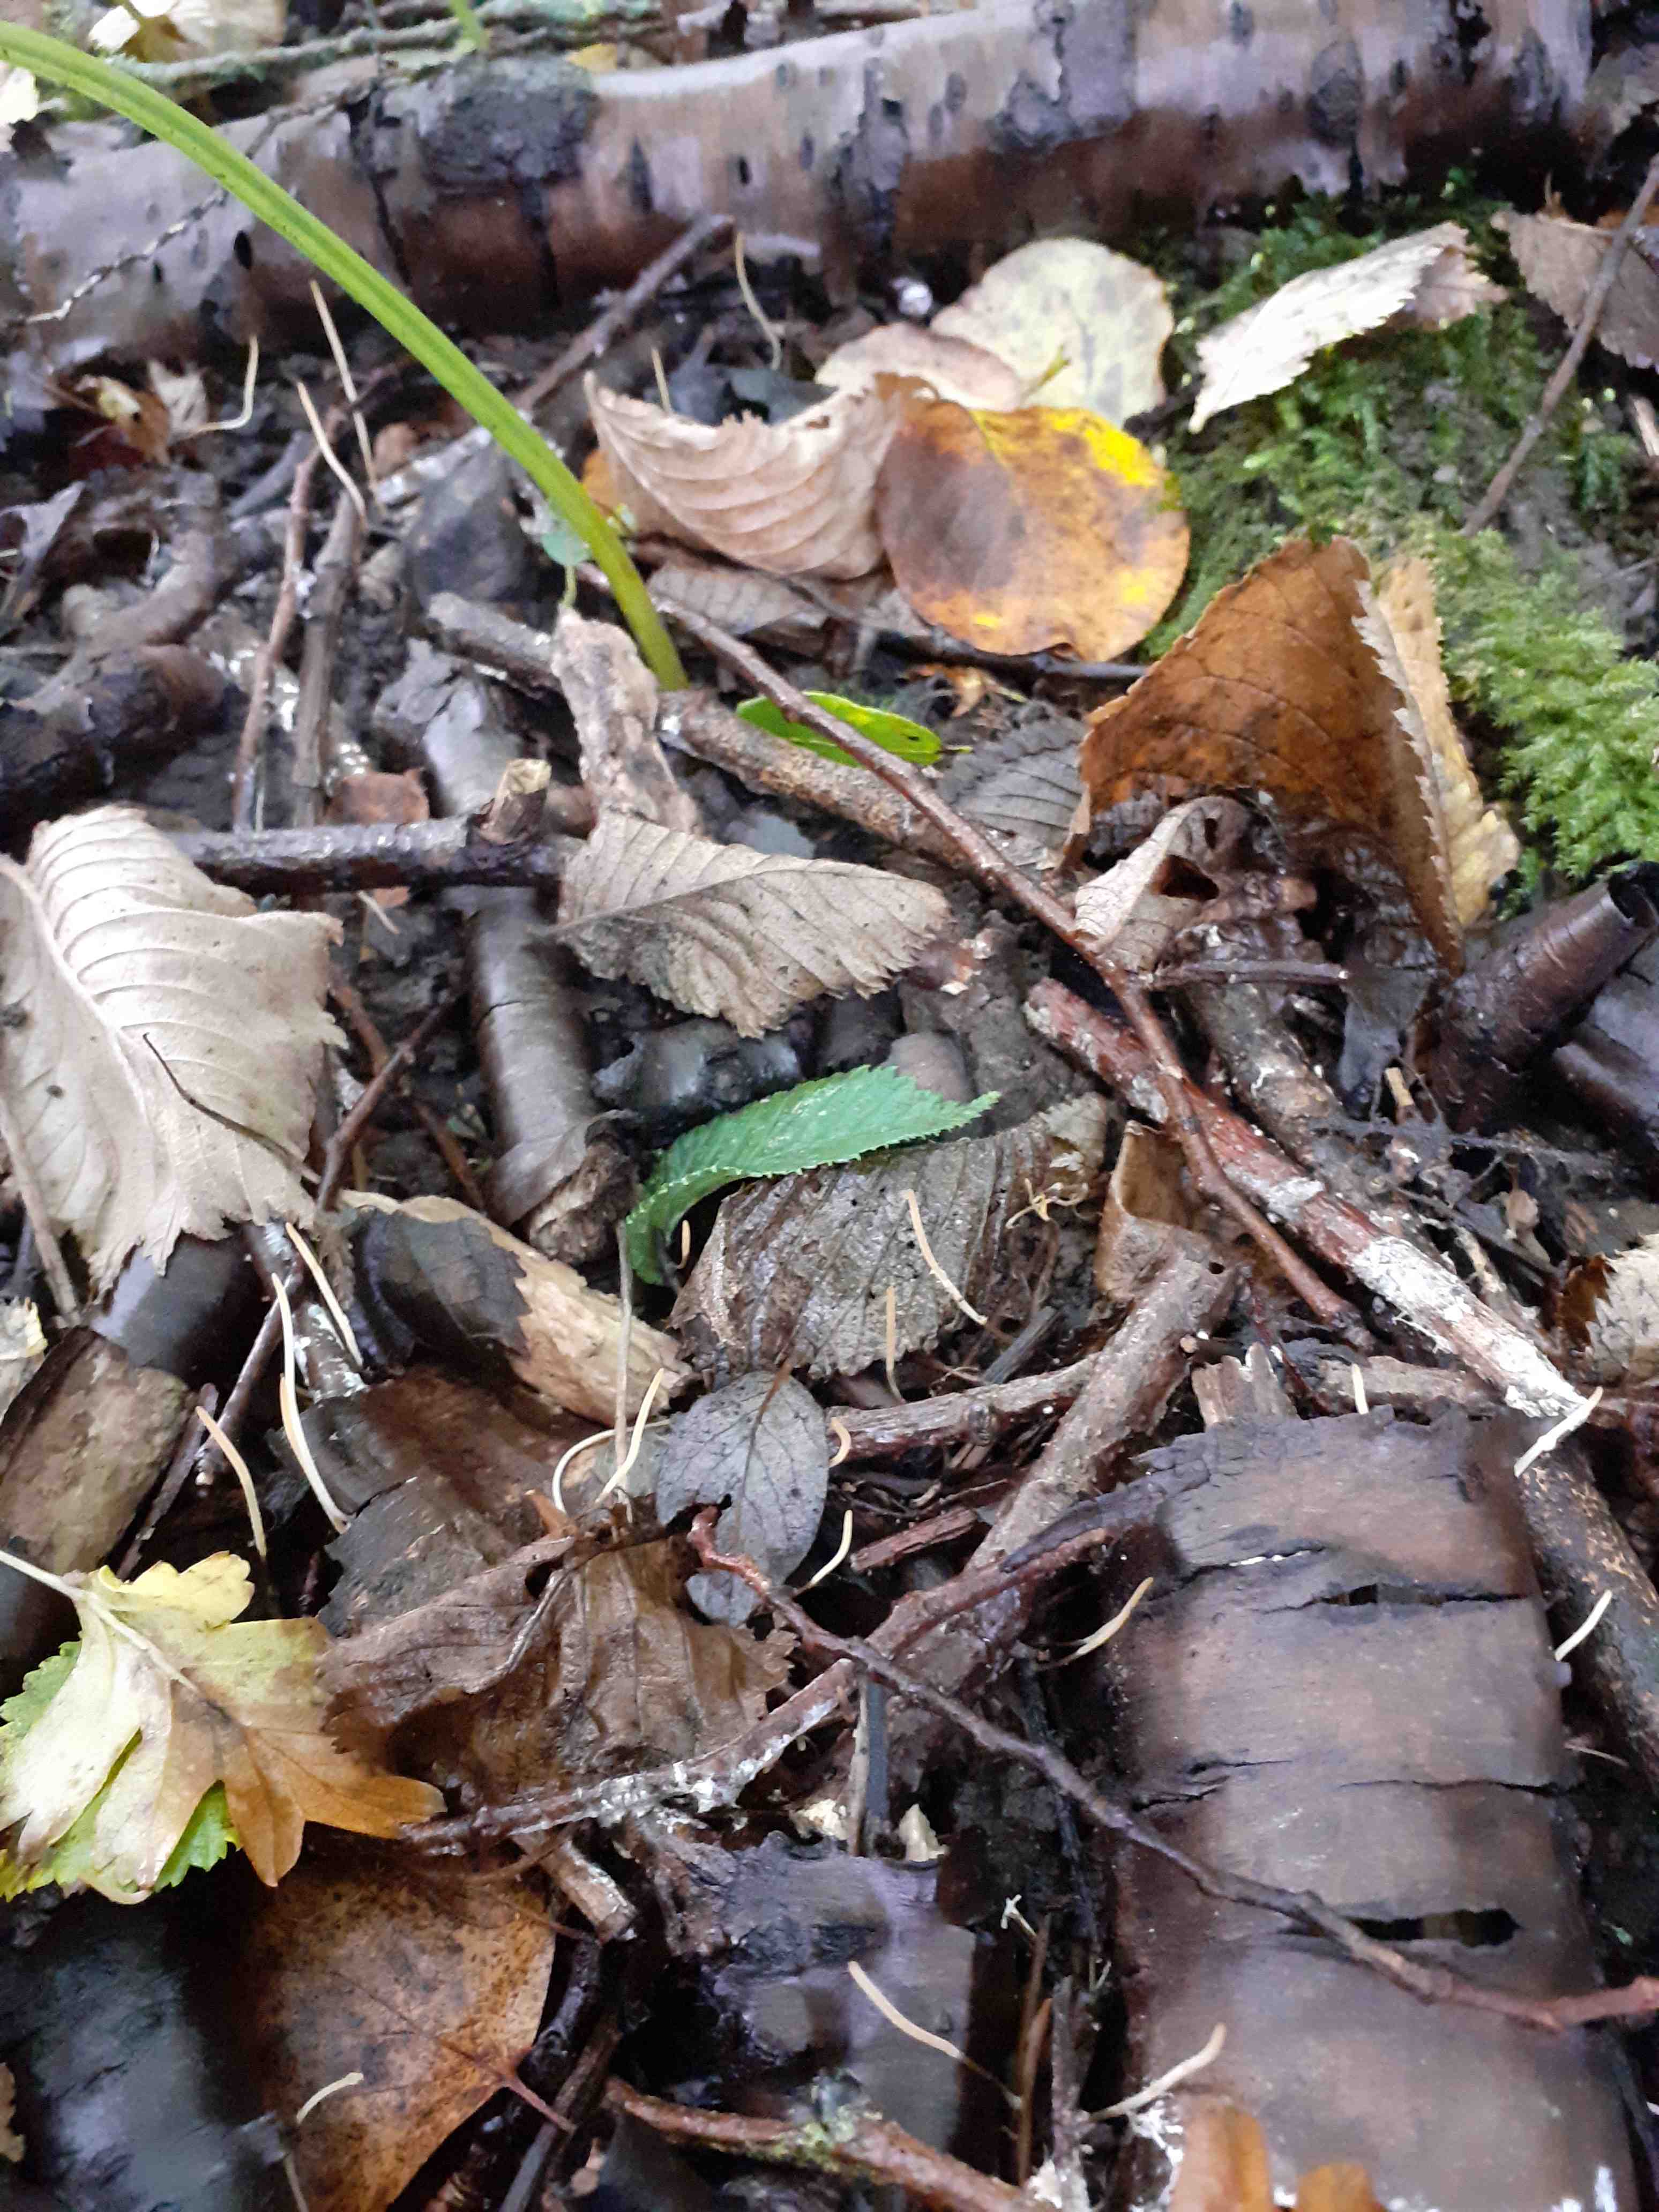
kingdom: Fungi
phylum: Basidiomycota
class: Agaricomycetes
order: Agaricales
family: Typhulaceae
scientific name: Typhulaceae
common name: trådkøllefamilien
